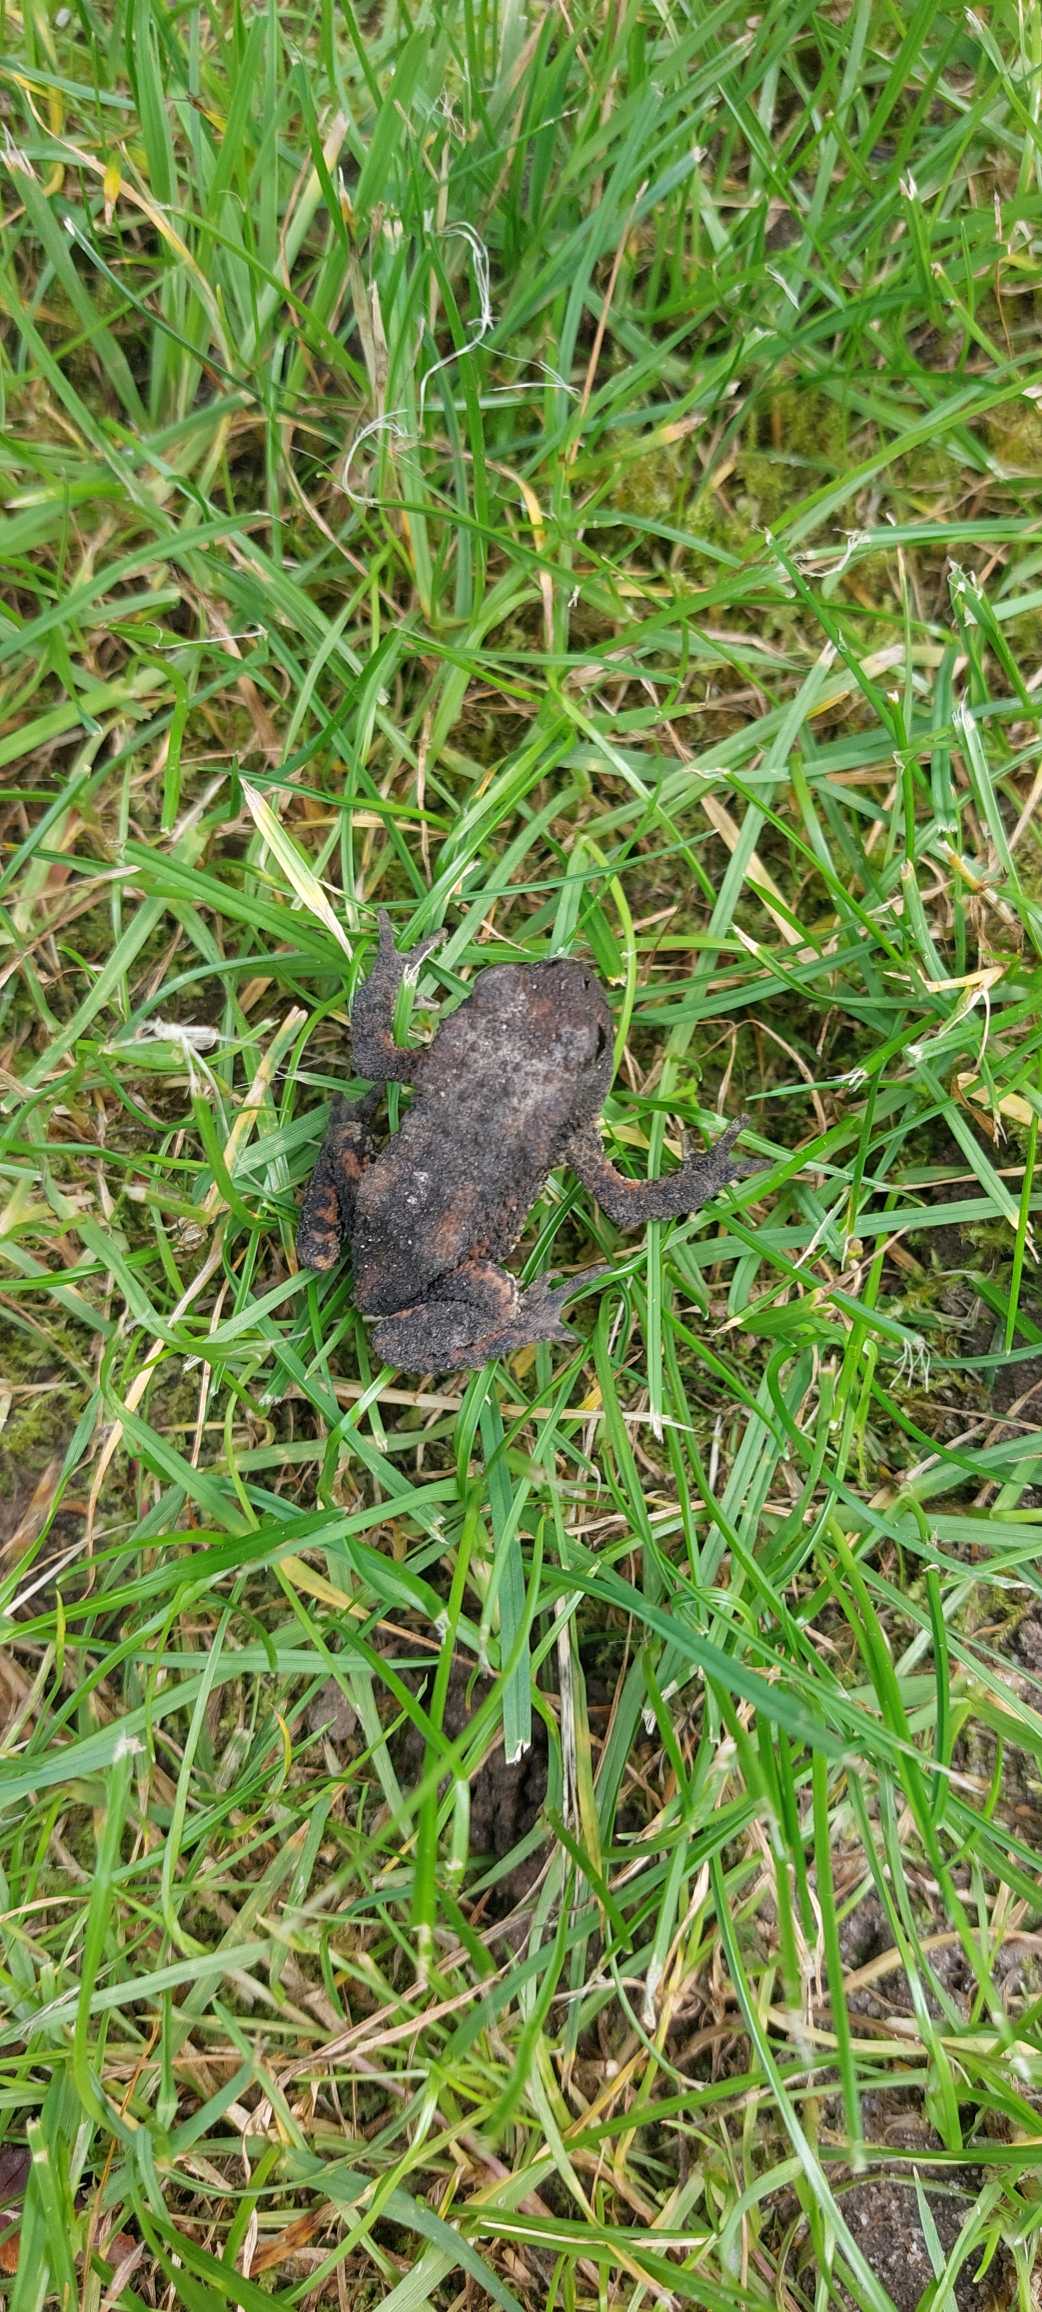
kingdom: Animalia
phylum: Chordata
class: Amphibia
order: Anura
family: Bufonidae
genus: Bufo
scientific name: Bufo bufo
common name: Skrubtudse
